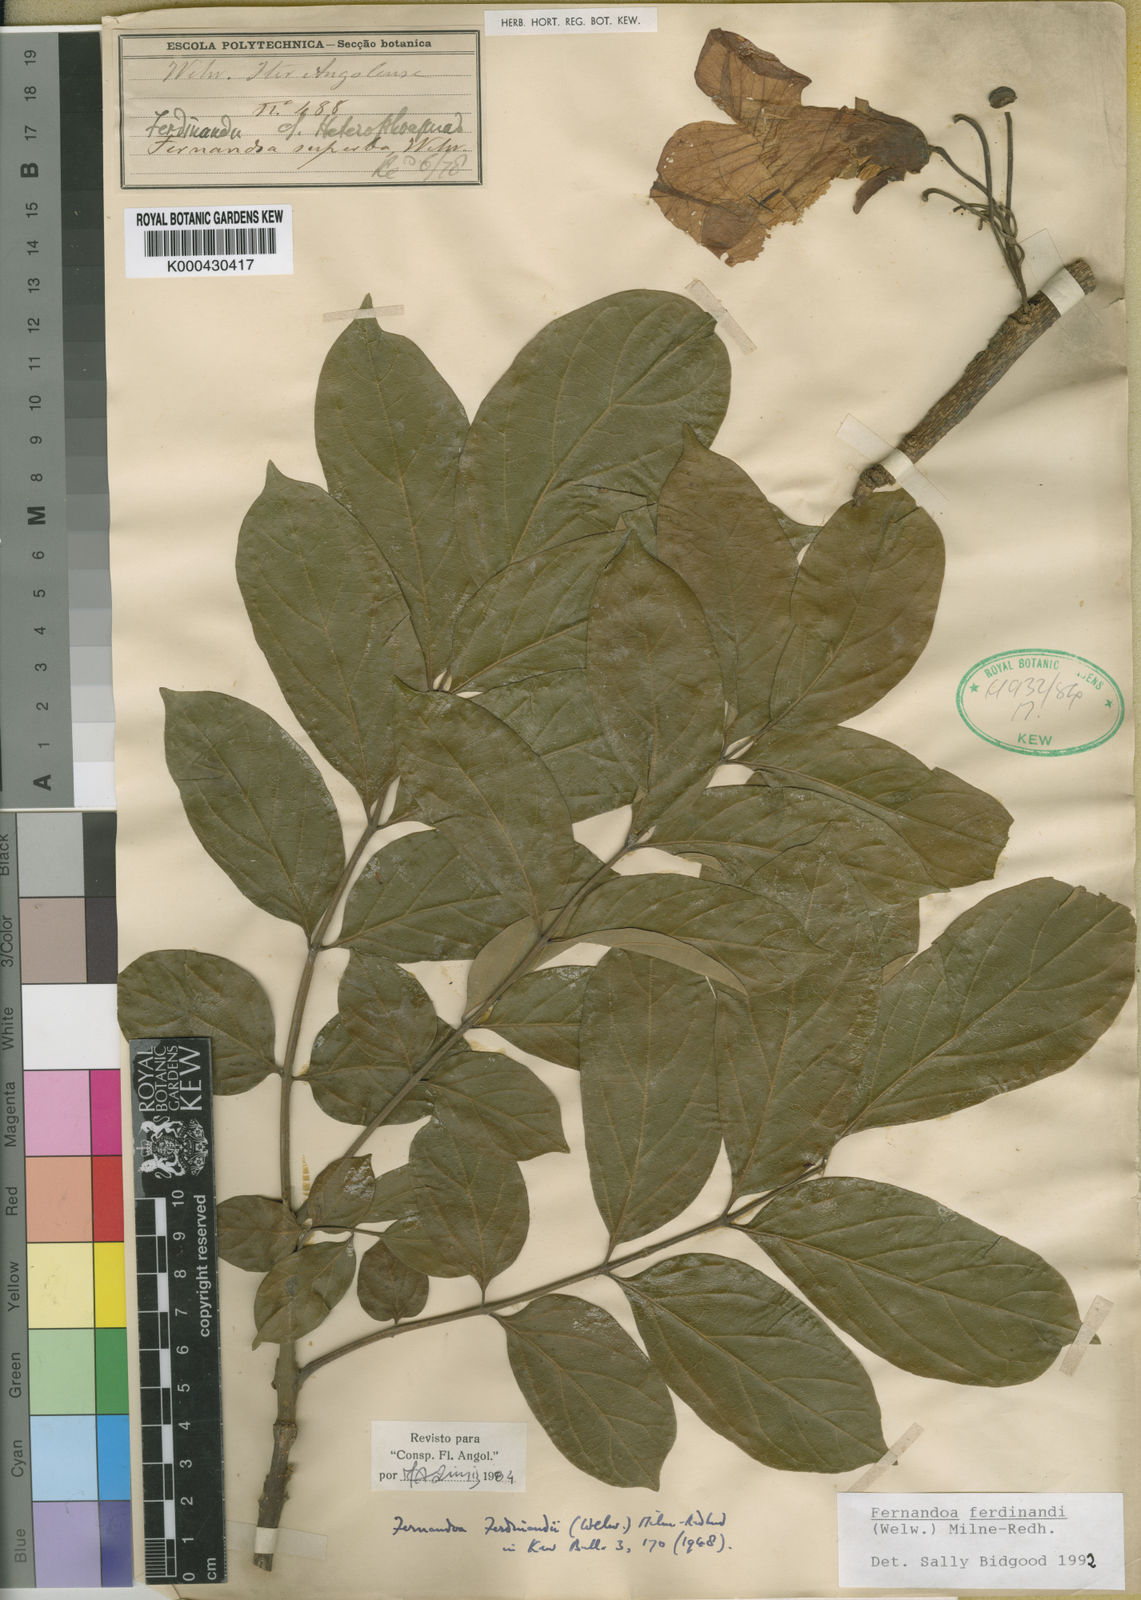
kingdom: Plantae
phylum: Tracheophyta
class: Magnoliopsida
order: Lamiales
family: Bignoniaceae
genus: Fernandoa
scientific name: Fernandoa
